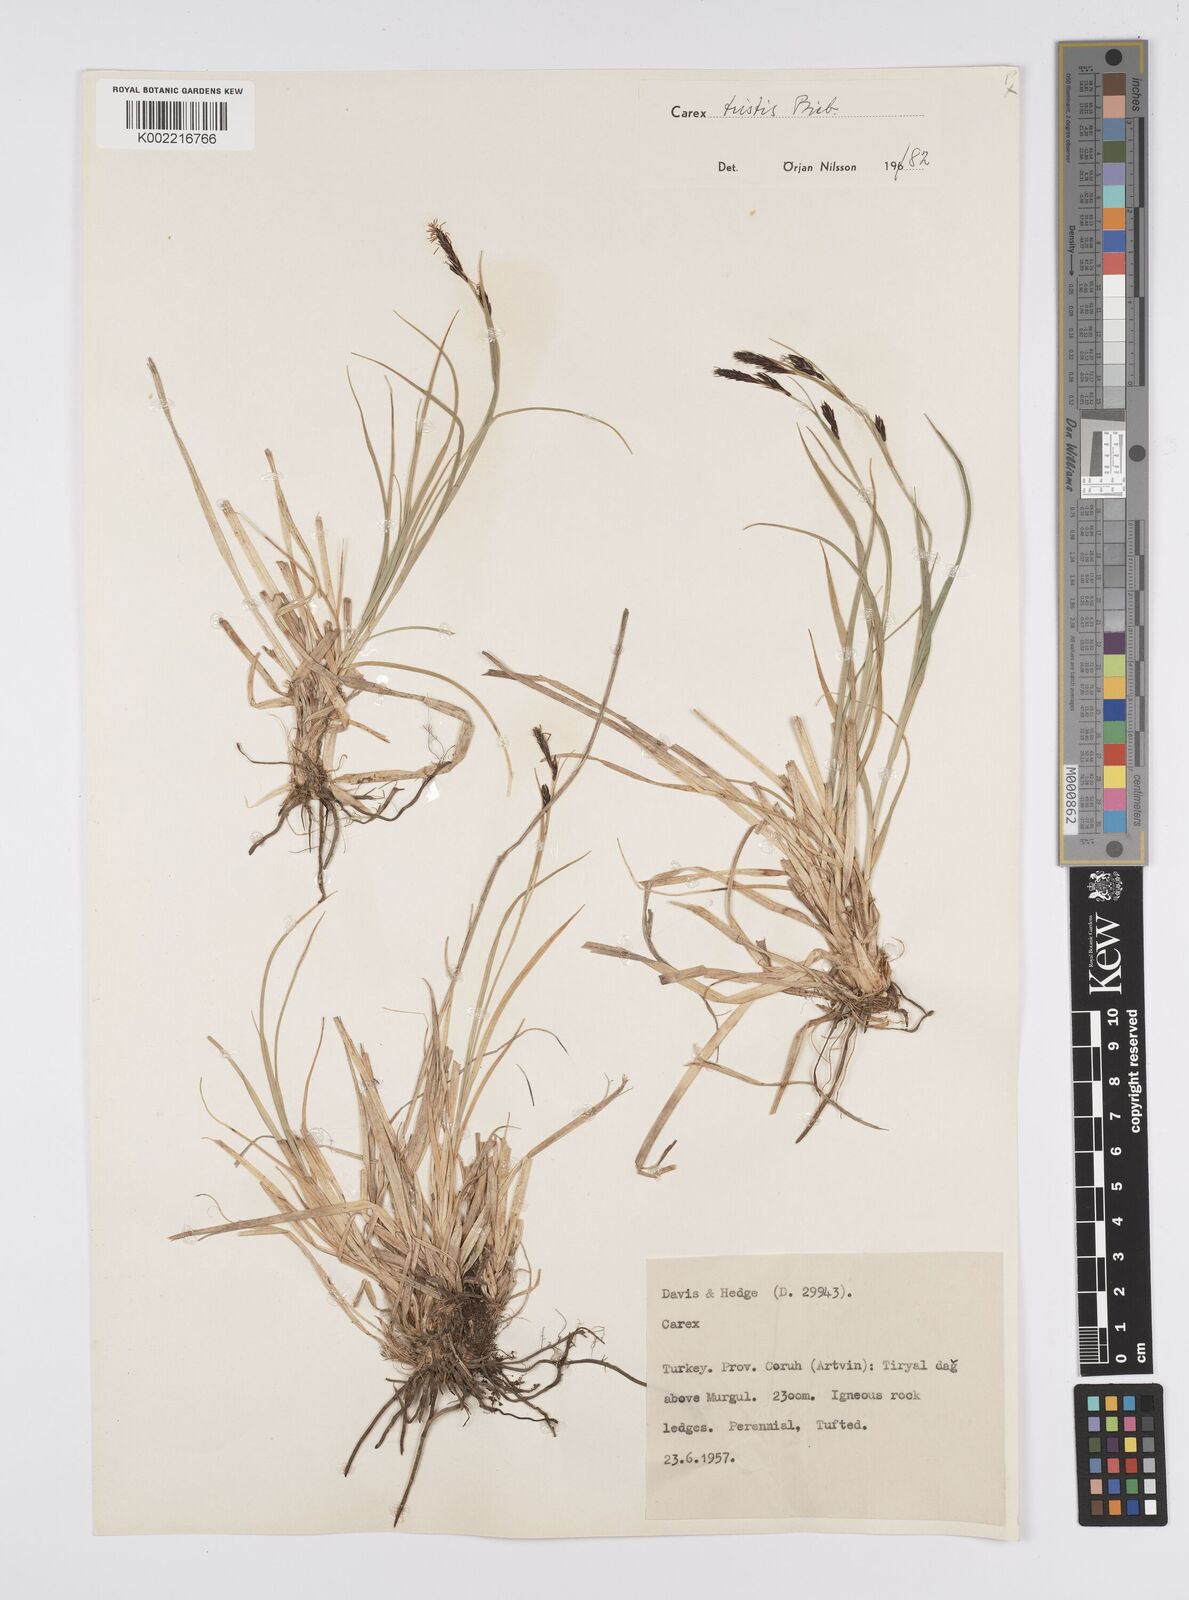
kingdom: Plantae
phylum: Tracheophyta
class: Liliopsida
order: Poales
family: Cyperaceae
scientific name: Cyperaceae
